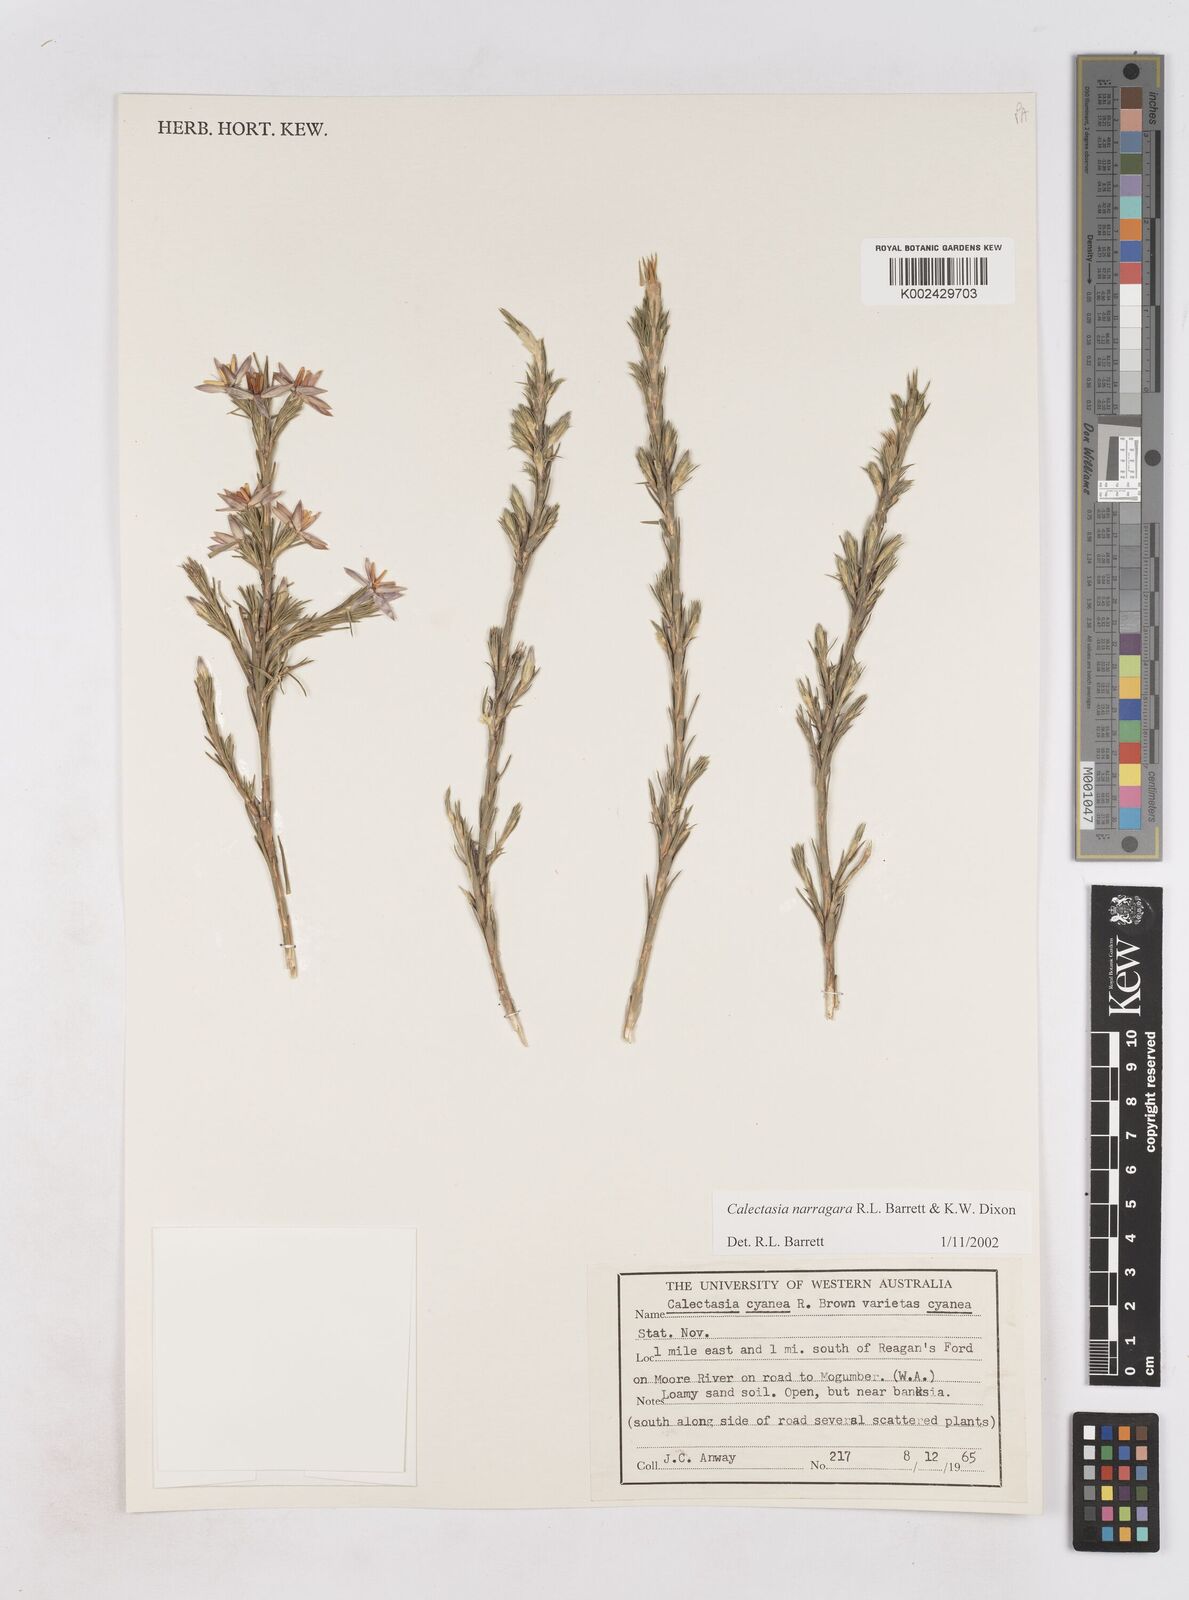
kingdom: Plantae
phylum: Tracheophyta
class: Liliopsida
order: Arecales
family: Dasypogonaceae
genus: Calectasia
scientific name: Calectasia narragara
